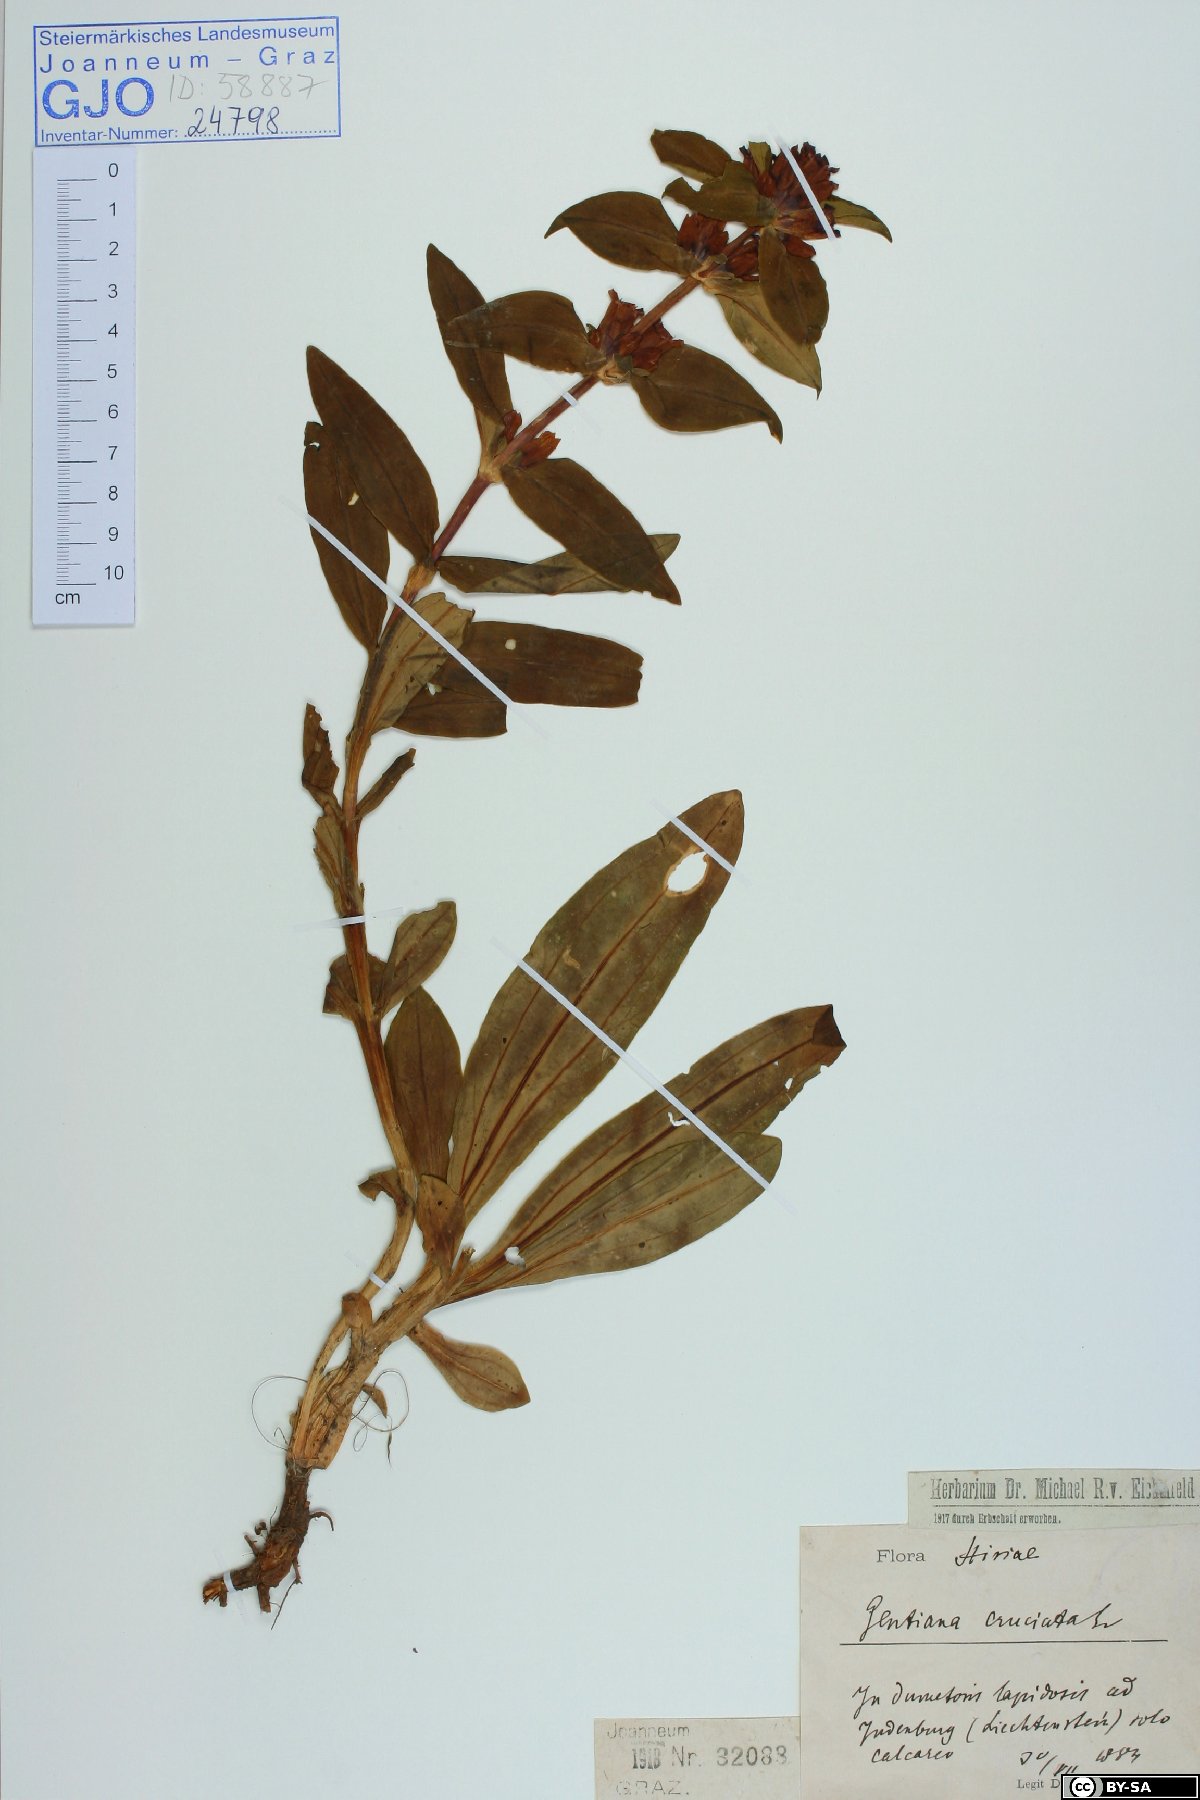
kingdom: Plantae
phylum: Tracheophyta
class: Magnoliopsida
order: Gentianales
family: Gentianaceae
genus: Gentiana
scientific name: Gentiana cruciata
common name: Cross gentian
